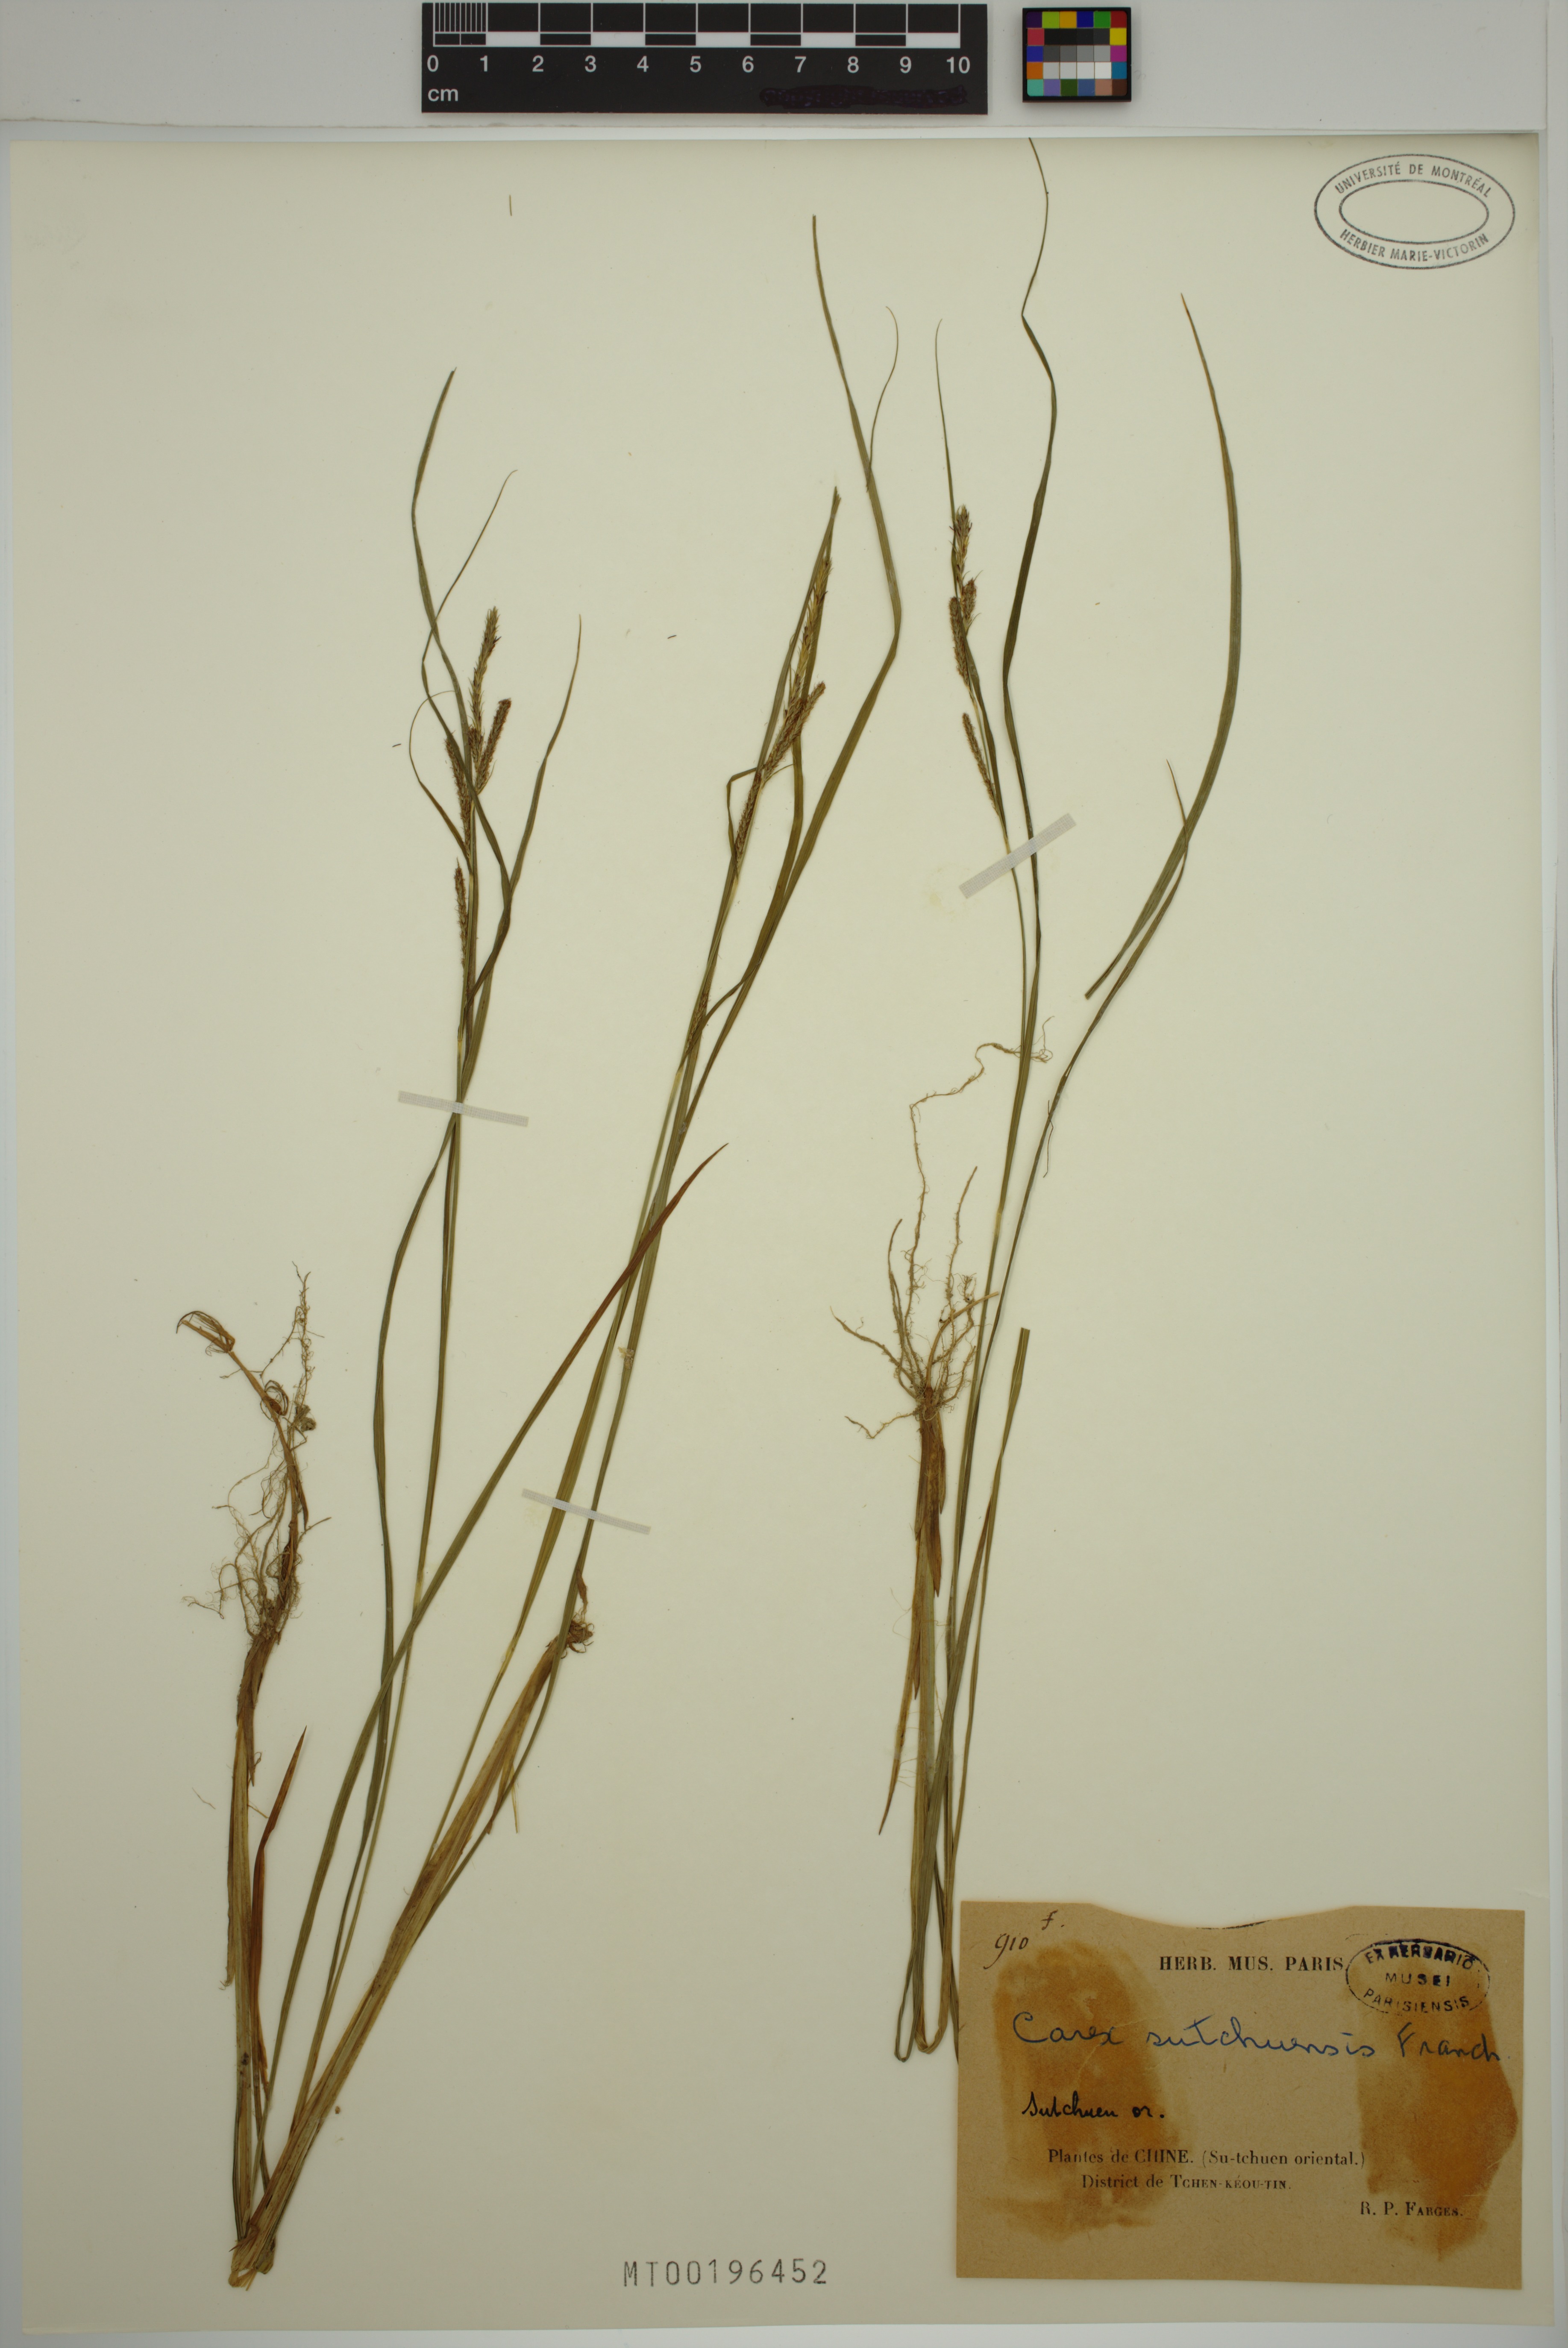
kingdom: Plantae
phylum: Tracheophyta
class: Liliopsida
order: Poales
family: Cyperaceae
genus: Carex
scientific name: Carex sutchuensis
